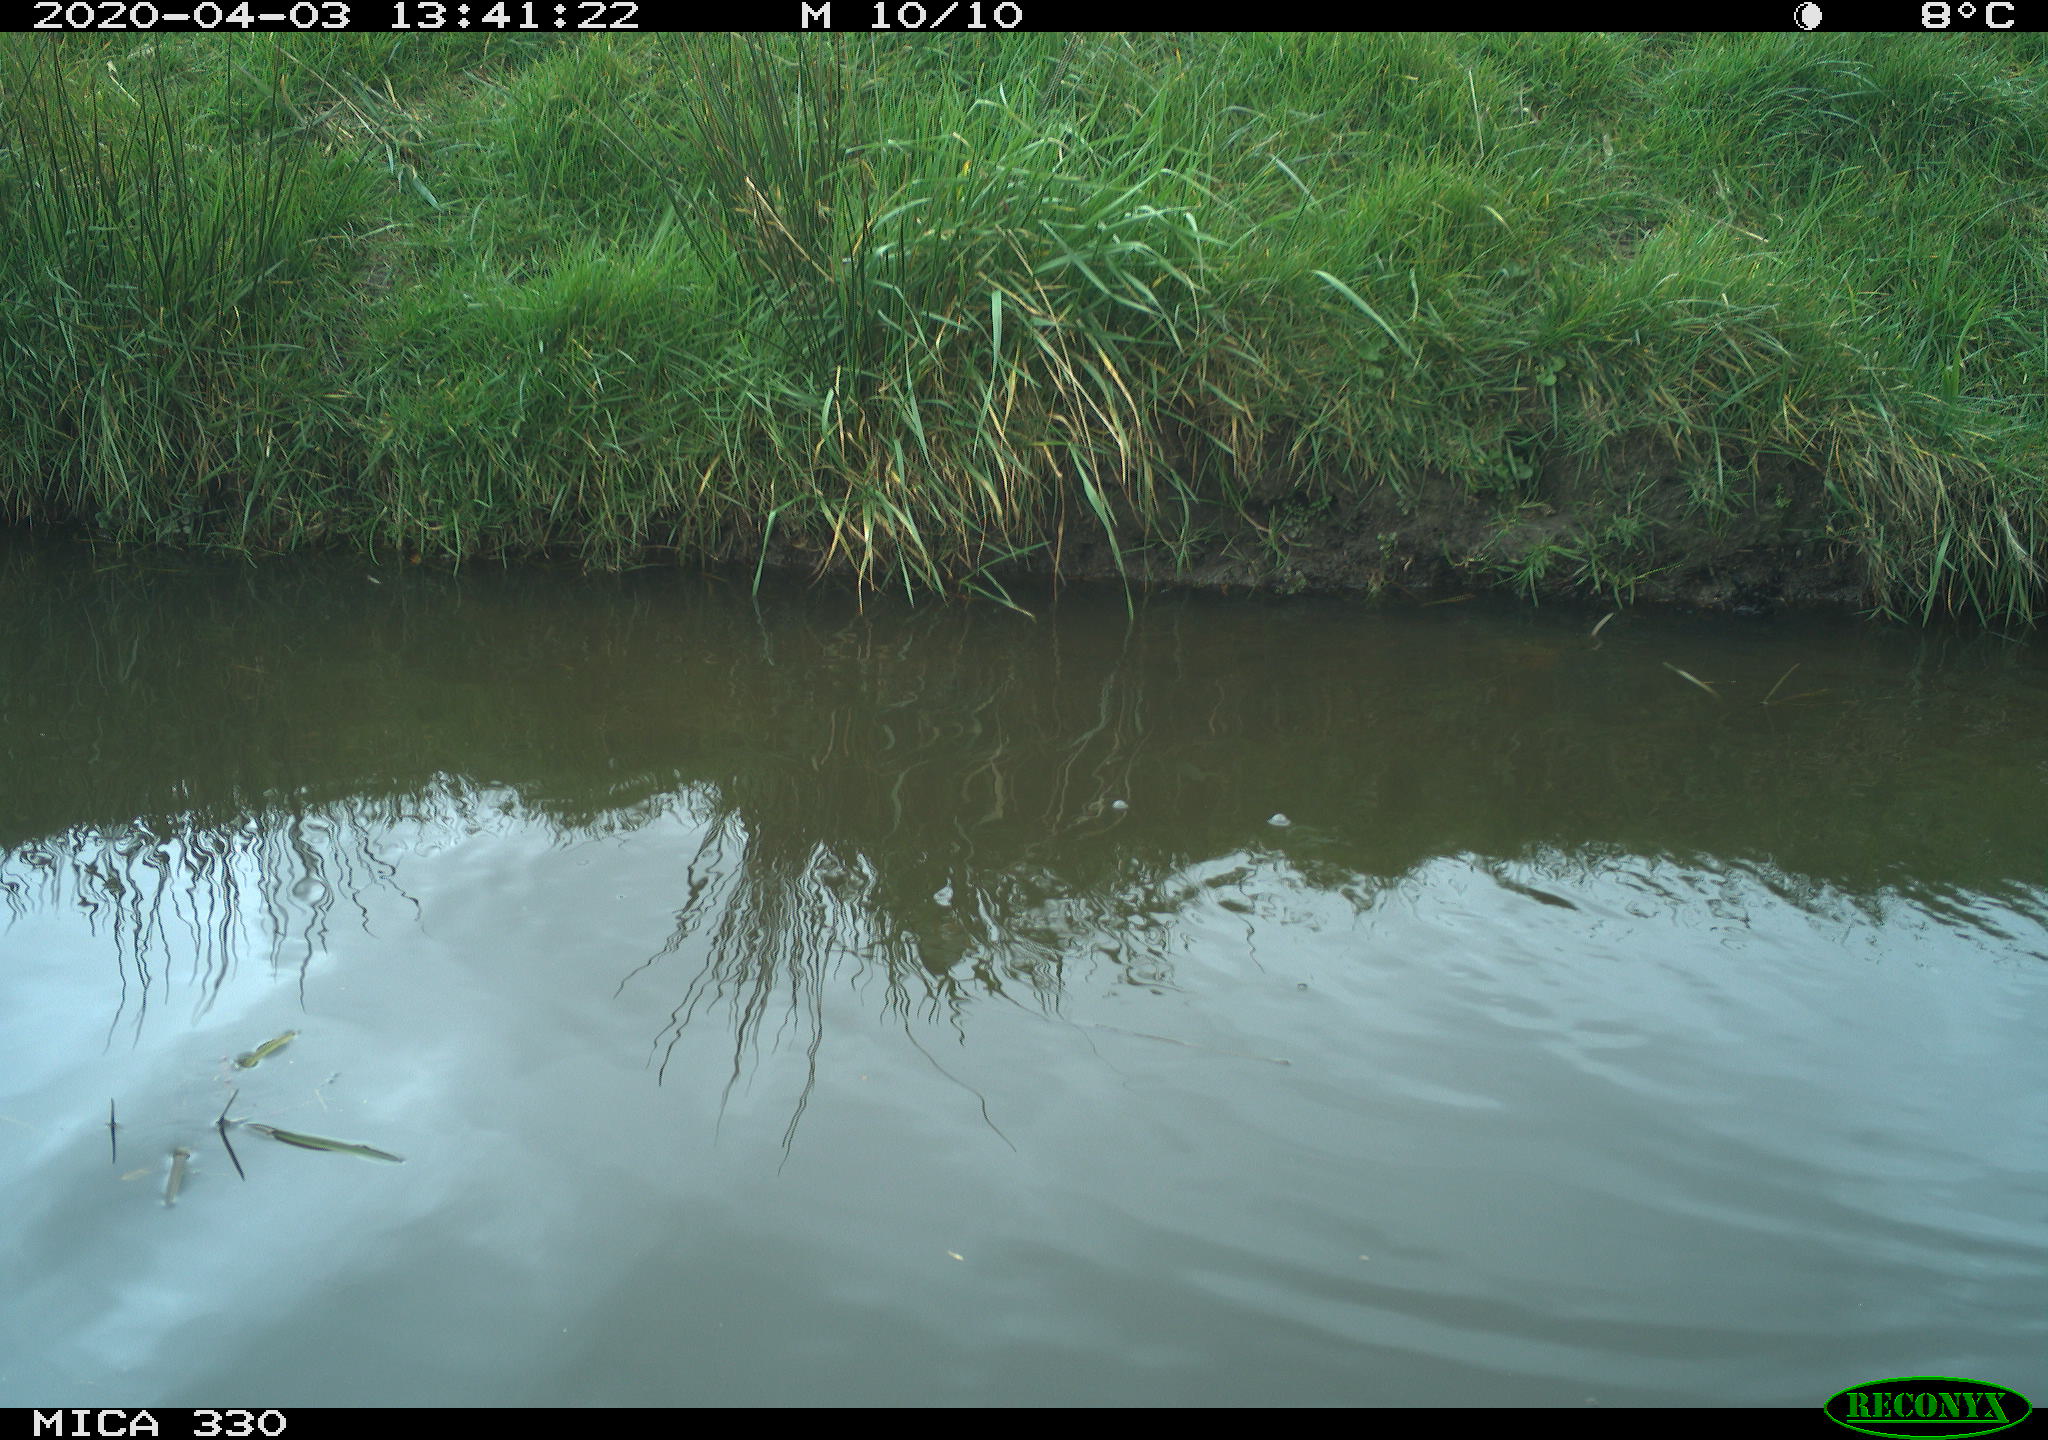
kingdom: Animalia
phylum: Chordata
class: Aves
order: Anseriformes
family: Anatidae
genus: Mareca
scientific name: Mareca strepera
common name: Gadwall
